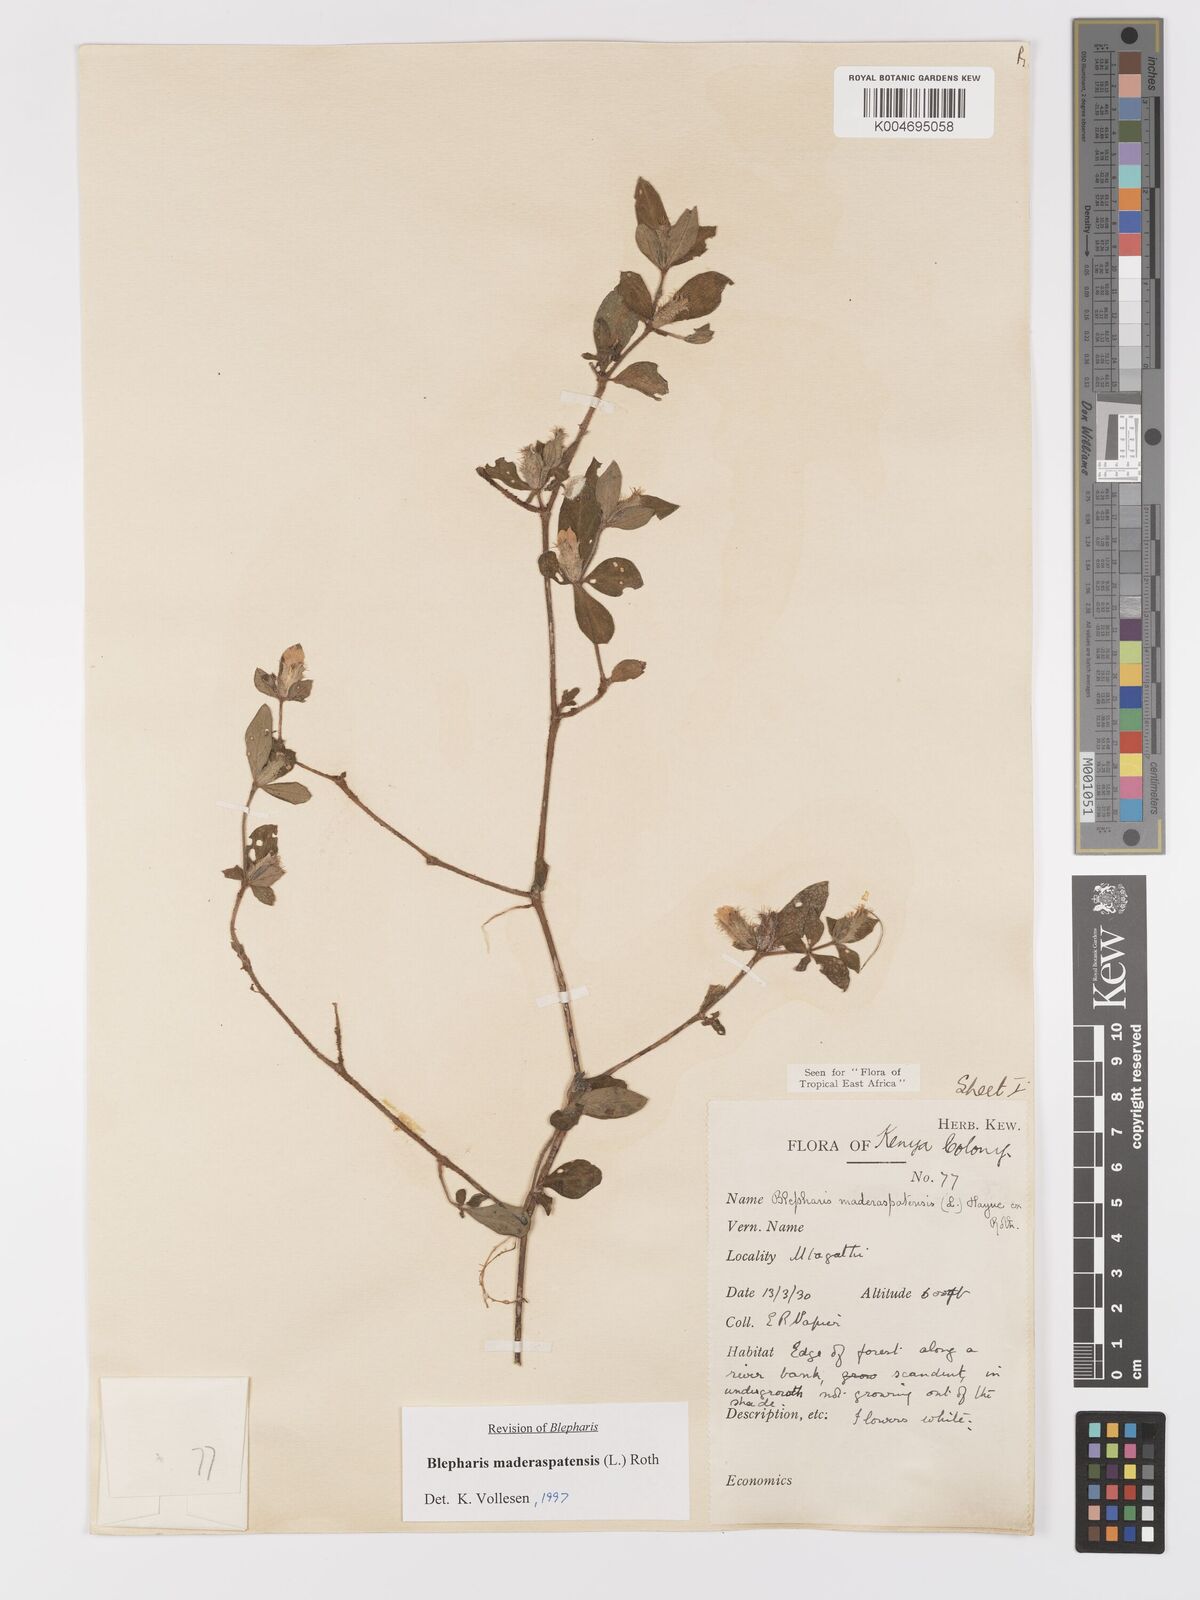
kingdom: Plantae
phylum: Tracheophyta
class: Magnoliopsida
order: Lamiales
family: Acanthaceae
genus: Blepharis
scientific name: Blepharis maderaspatensis
